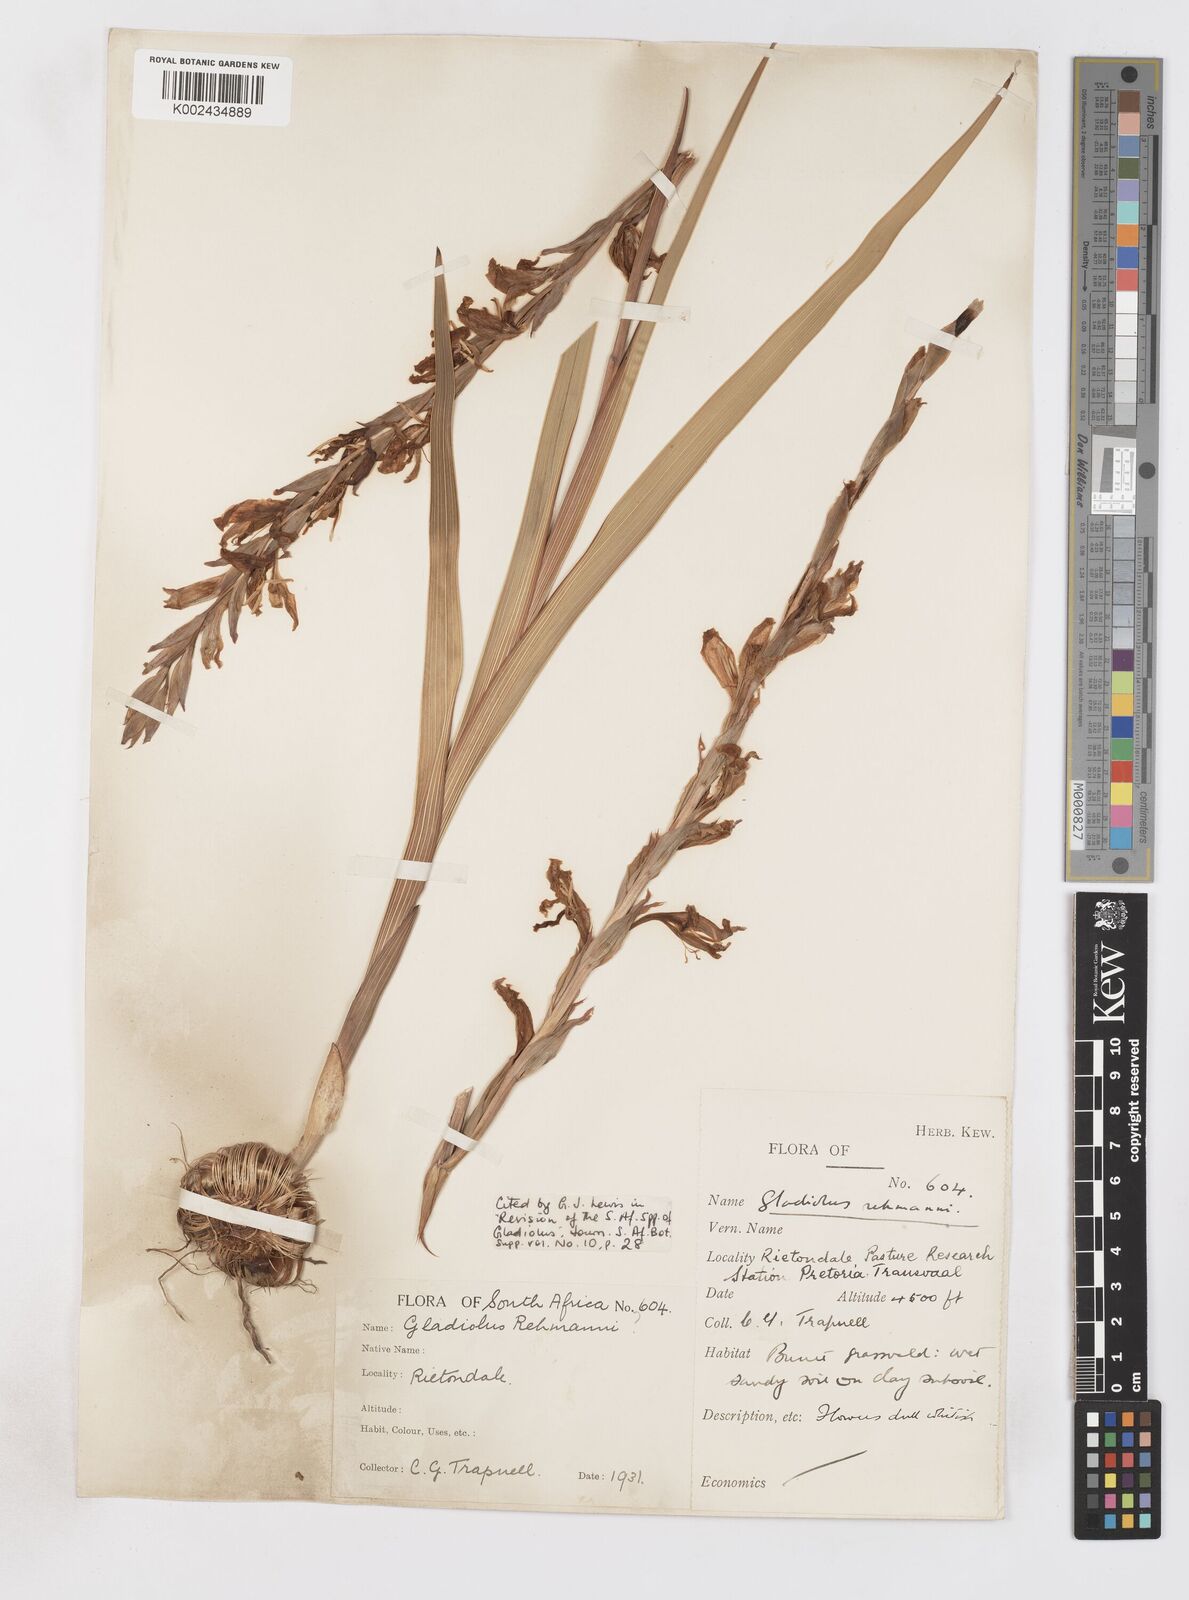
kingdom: Plantae
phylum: Tracheophyta
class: Liliopsida
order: Asparagales
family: Iridaceae
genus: Gladiolus
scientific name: Gladiolus elliotii
